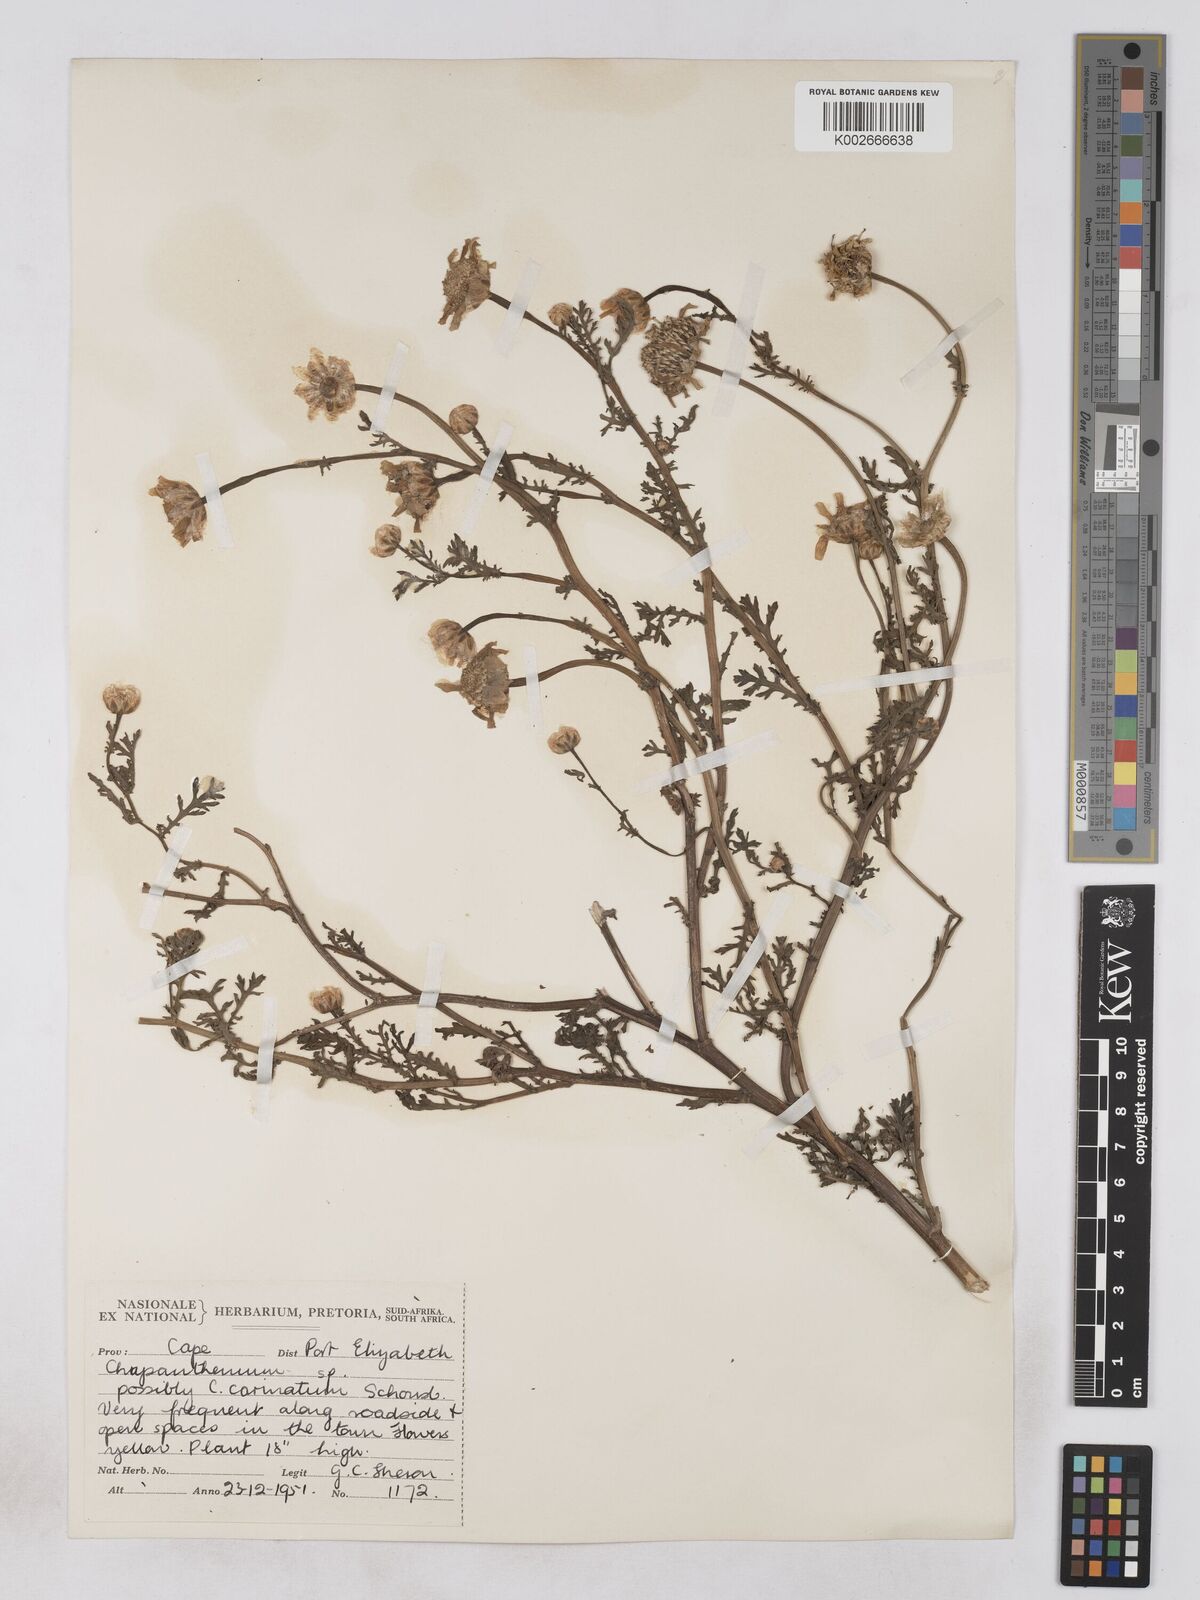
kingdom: Plantae
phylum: Tracheophyta
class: Magnoliopsida
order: Asterales
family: Asteraceae
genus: Argyranthemum
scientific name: Argyranthemum
